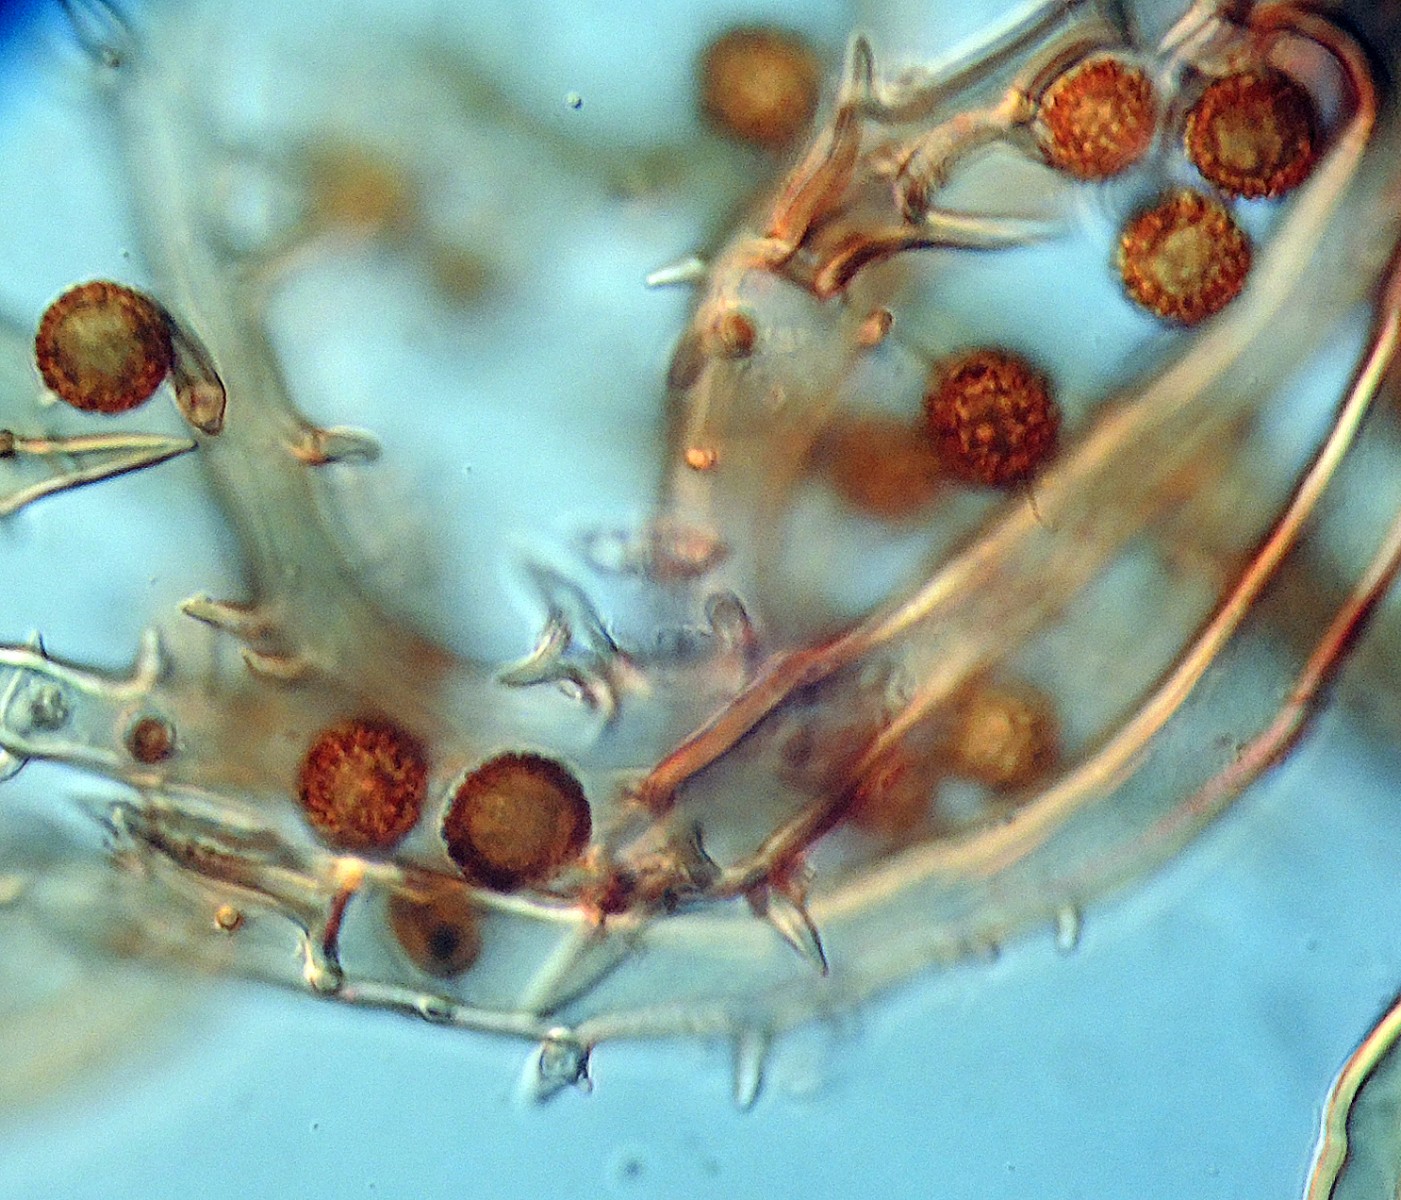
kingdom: Fungi
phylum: Basidiomycota
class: Agaricomycetes
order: Agaricales
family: Agaricaceae
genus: Mycenastrum
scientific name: Mycenastrum corium
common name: læderbold
